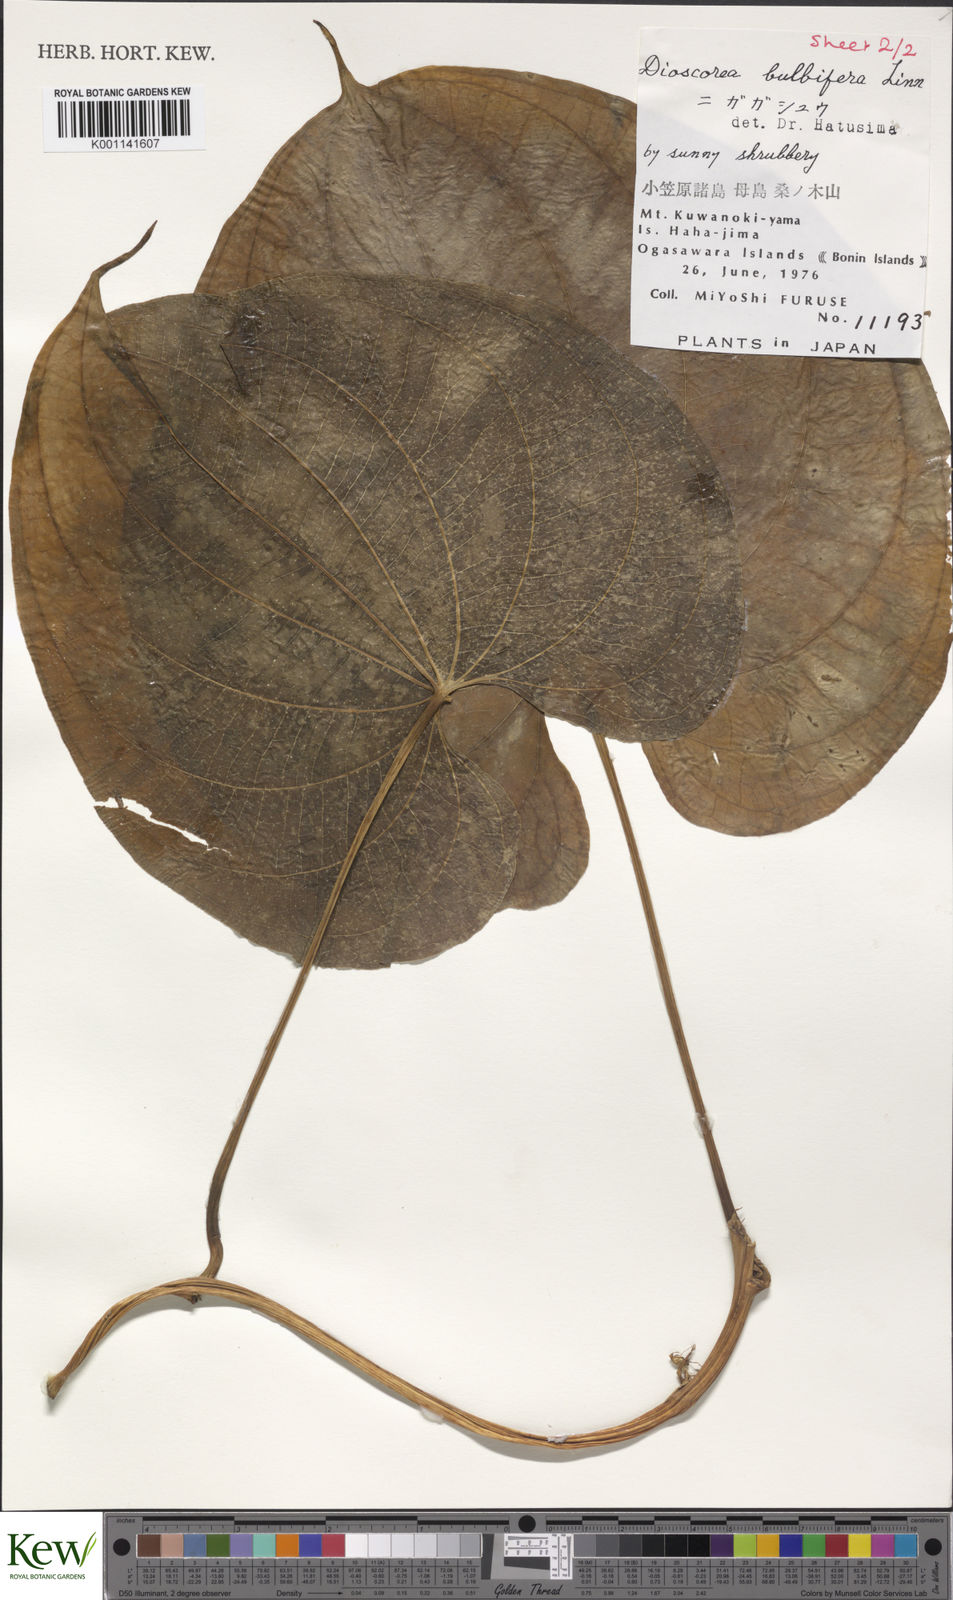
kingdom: Plantae
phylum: Tracheophyta
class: Liliopsida
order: Dioscoreales
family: Dioscoreaceae
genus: Dioscorea
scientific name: Dioscorea bulbifera
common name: Air yam
